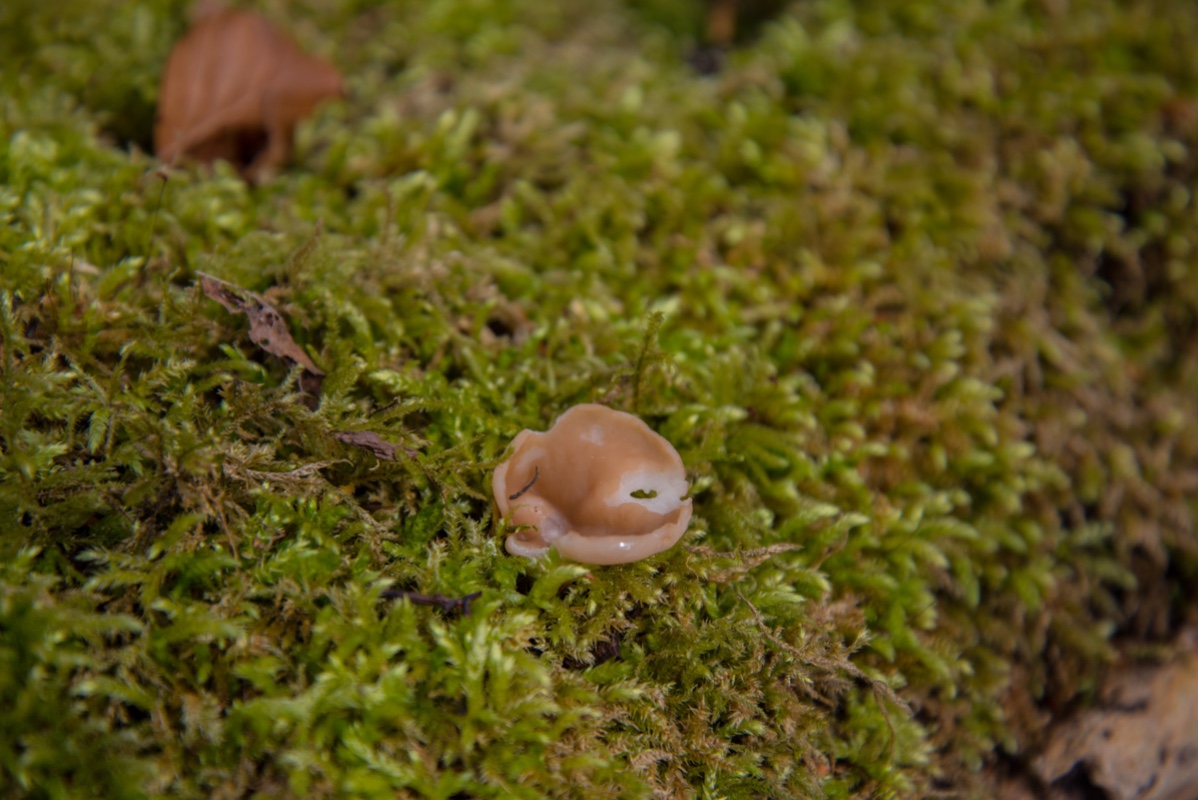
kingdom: Fungi
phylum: Ascomycota
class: Pezizomycetes
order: Pezizales
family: Discinaceae
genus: Gyromitra
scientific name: Gyromitra parma
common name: flad stenmorkel
